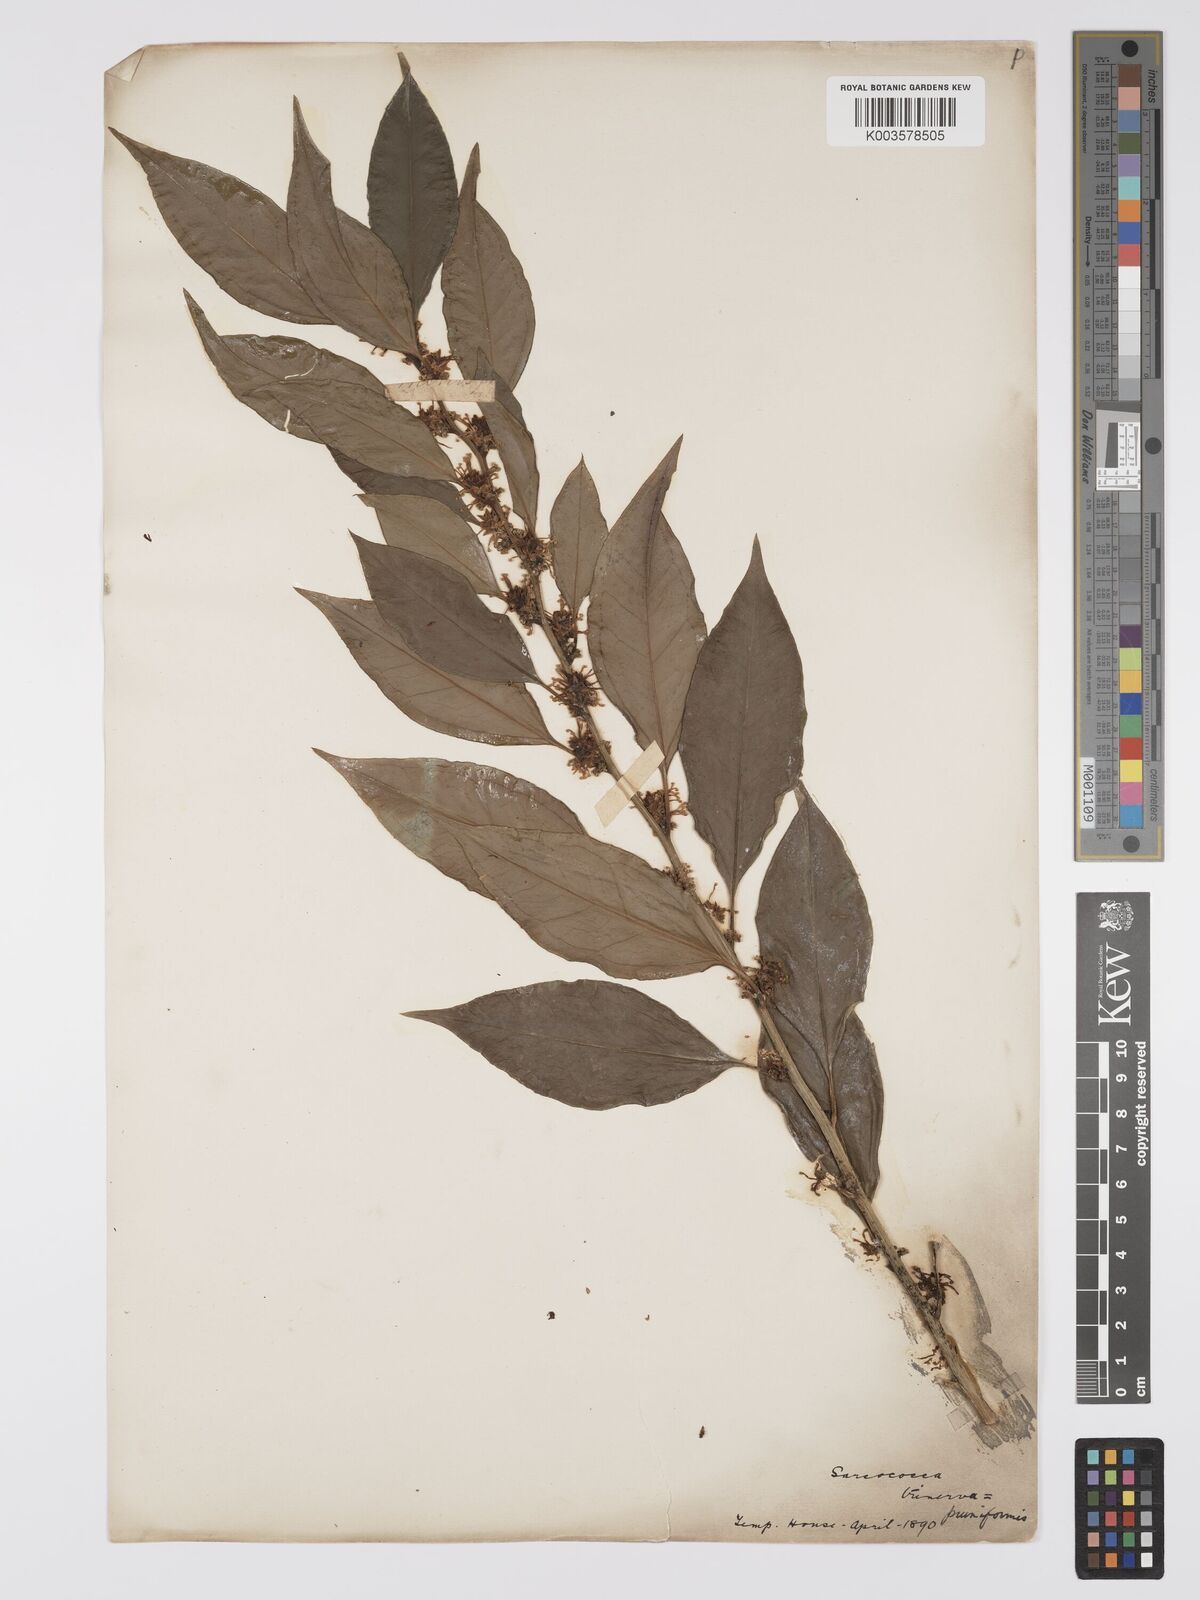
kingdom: Plantae
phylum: Tracheophyta
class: Magnoliopsida
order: Buxales
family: Buxaceae
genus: Sarcococca
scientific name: Sarcococca coriacea
